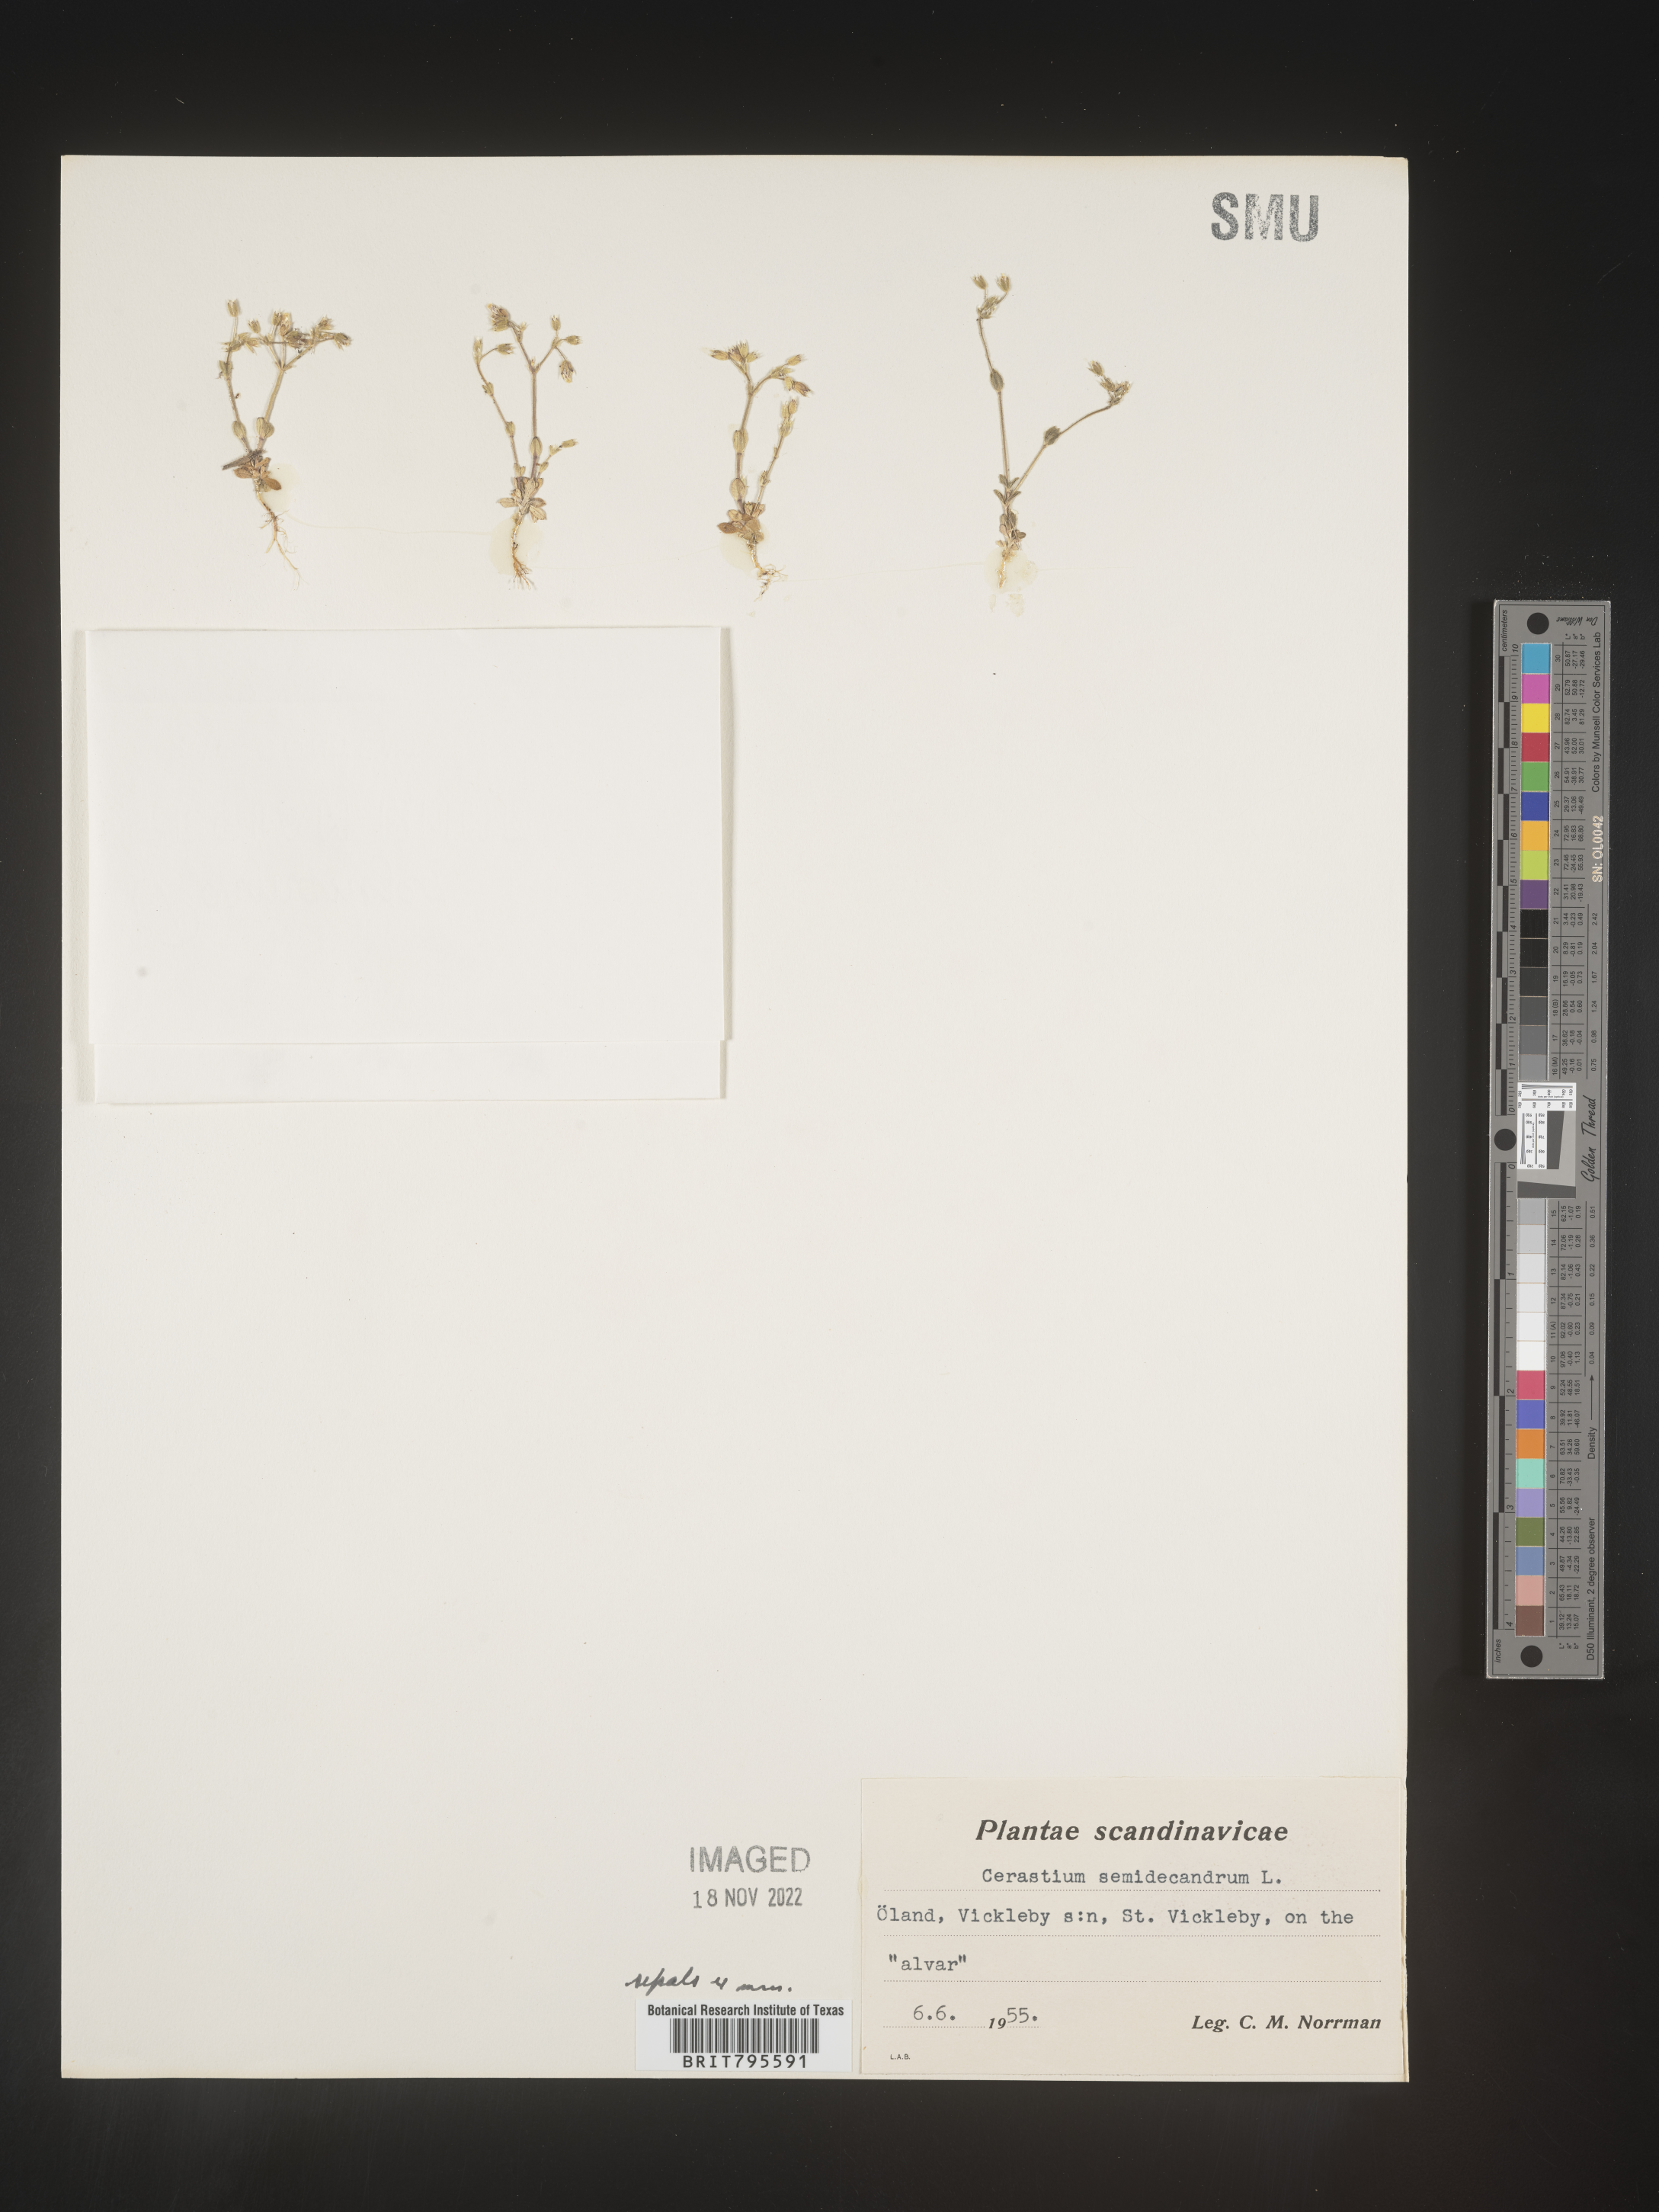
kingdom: Plantae
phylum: Tracheophyta
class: Magnoliopsida
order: Caryophyllales
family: Caryophyllaceae
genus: Cerastium
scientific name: Cerastium
